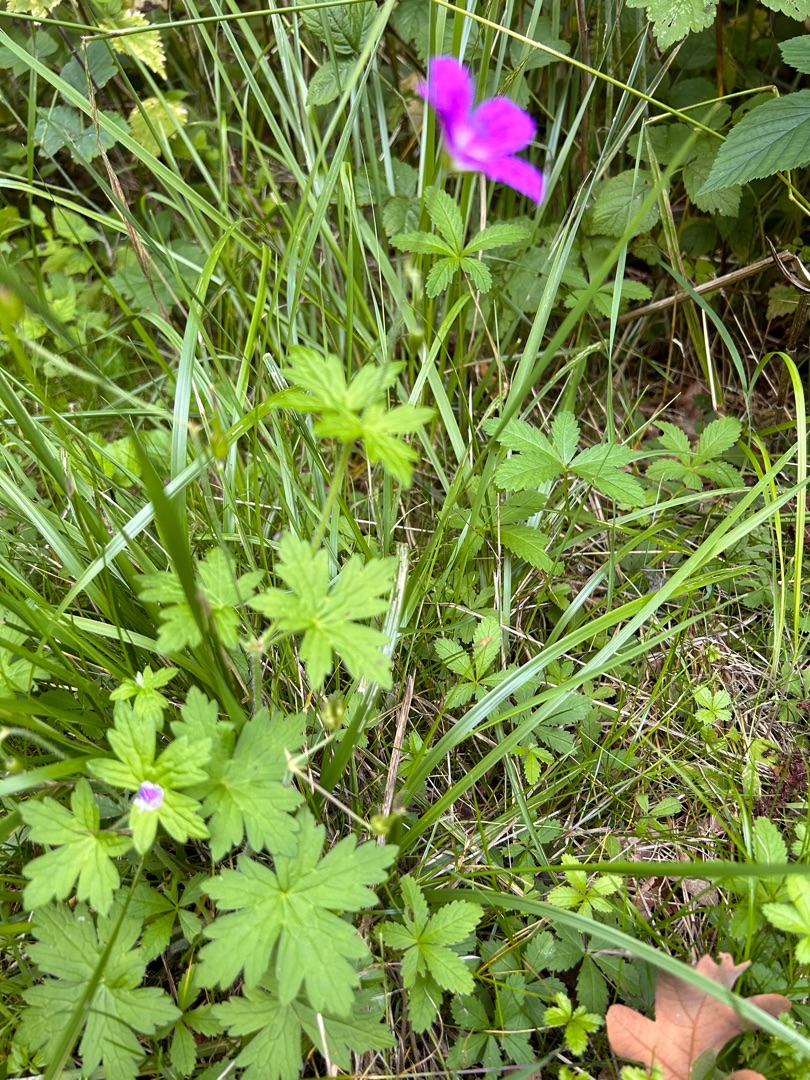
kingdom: Plantae
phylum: Tracheophyta
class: Magnoliopsida
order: Geraniales
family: Geraniaceae
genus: Geranium
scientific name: Geranium palustre
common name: Kær-storkenæb
